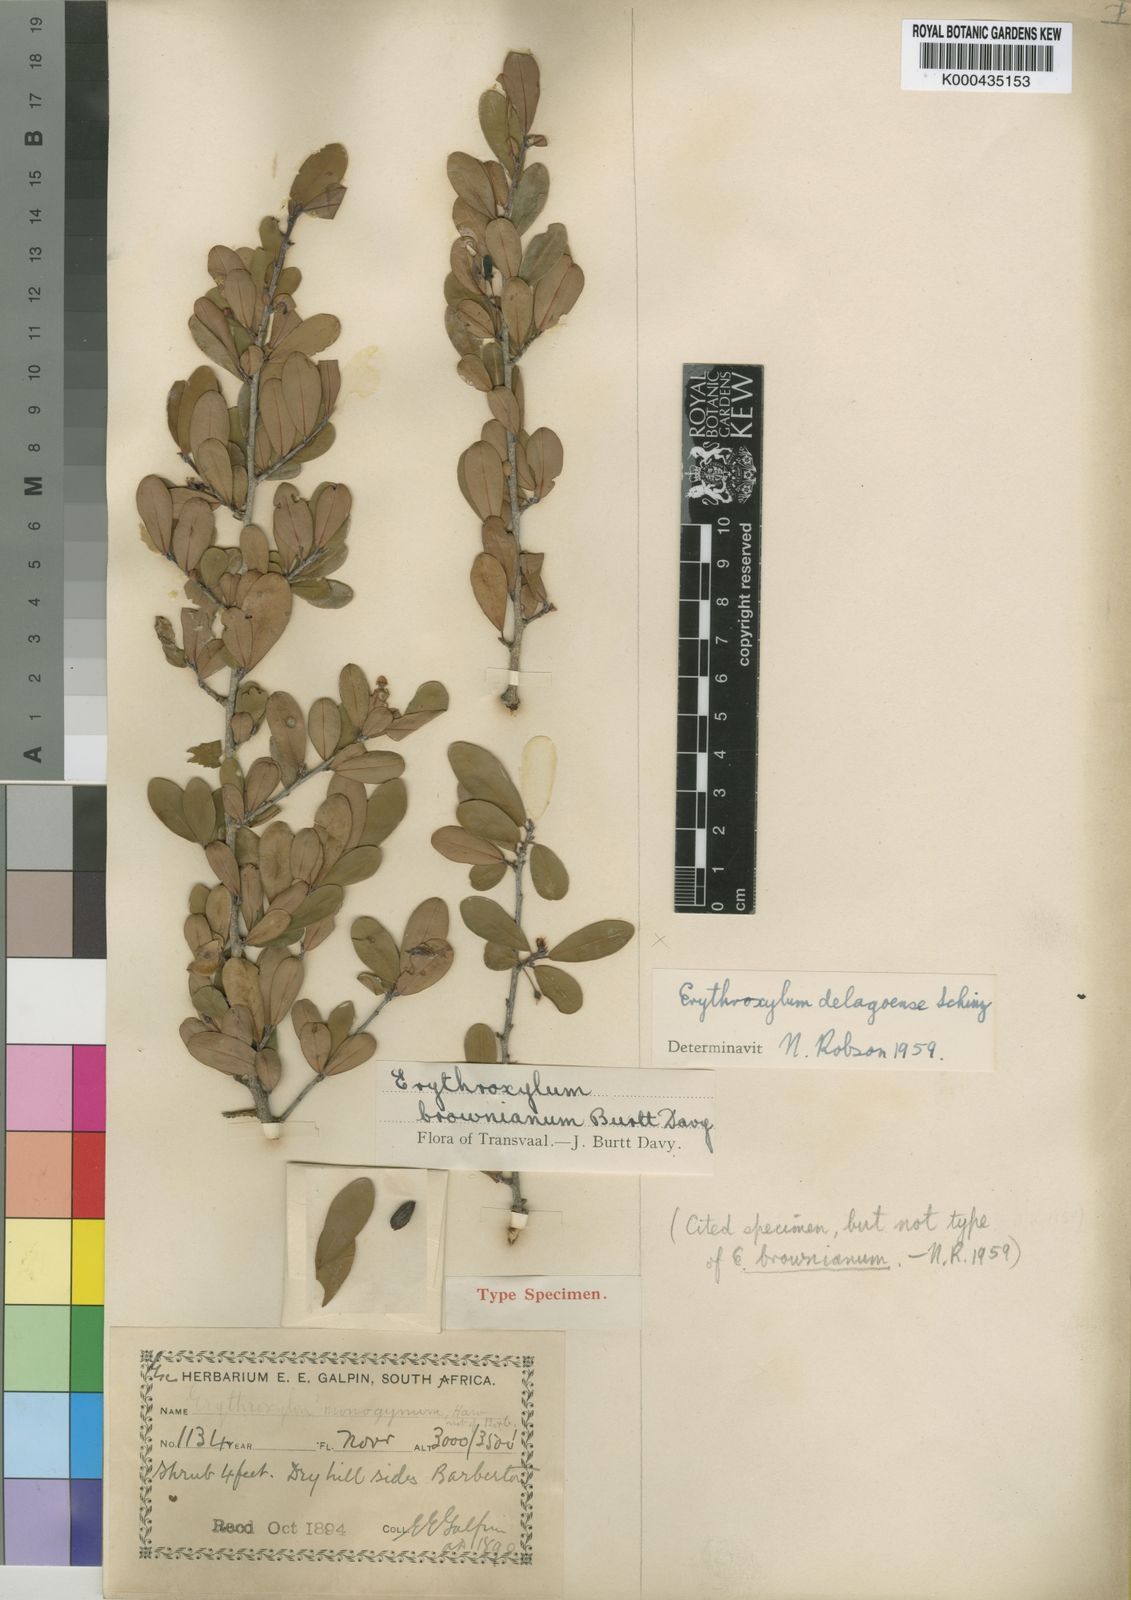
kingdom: Plantae
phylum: Tracheophyta
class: Magnoliopsida
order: Malpighiales
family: Erythroxylaceae
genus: Erythroxylum
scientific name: Erythroxylum delagoense
